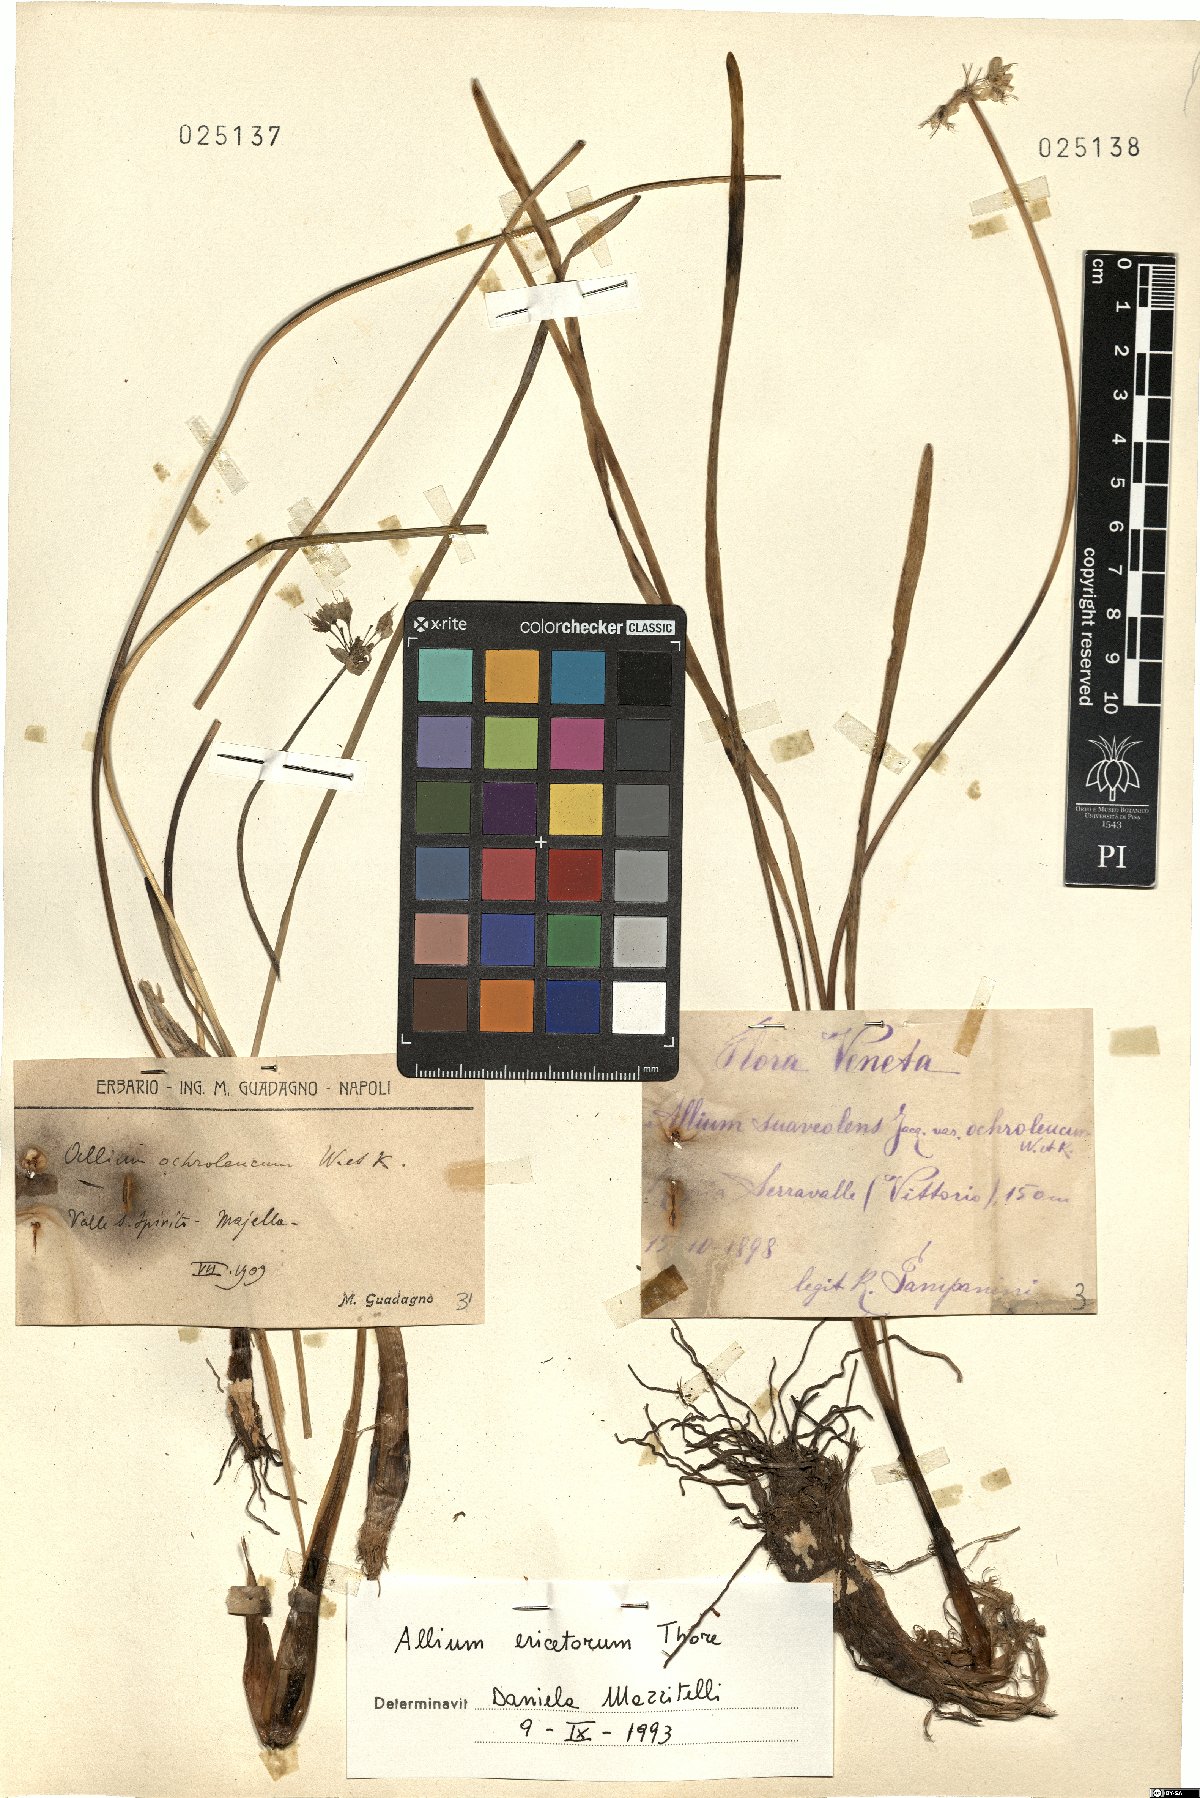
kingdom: Plantae
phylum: Tracheophyta
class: Liliopsida
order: Asparagales
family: Amaryllidaceae
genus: Allium
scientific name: Allium ericetorum
